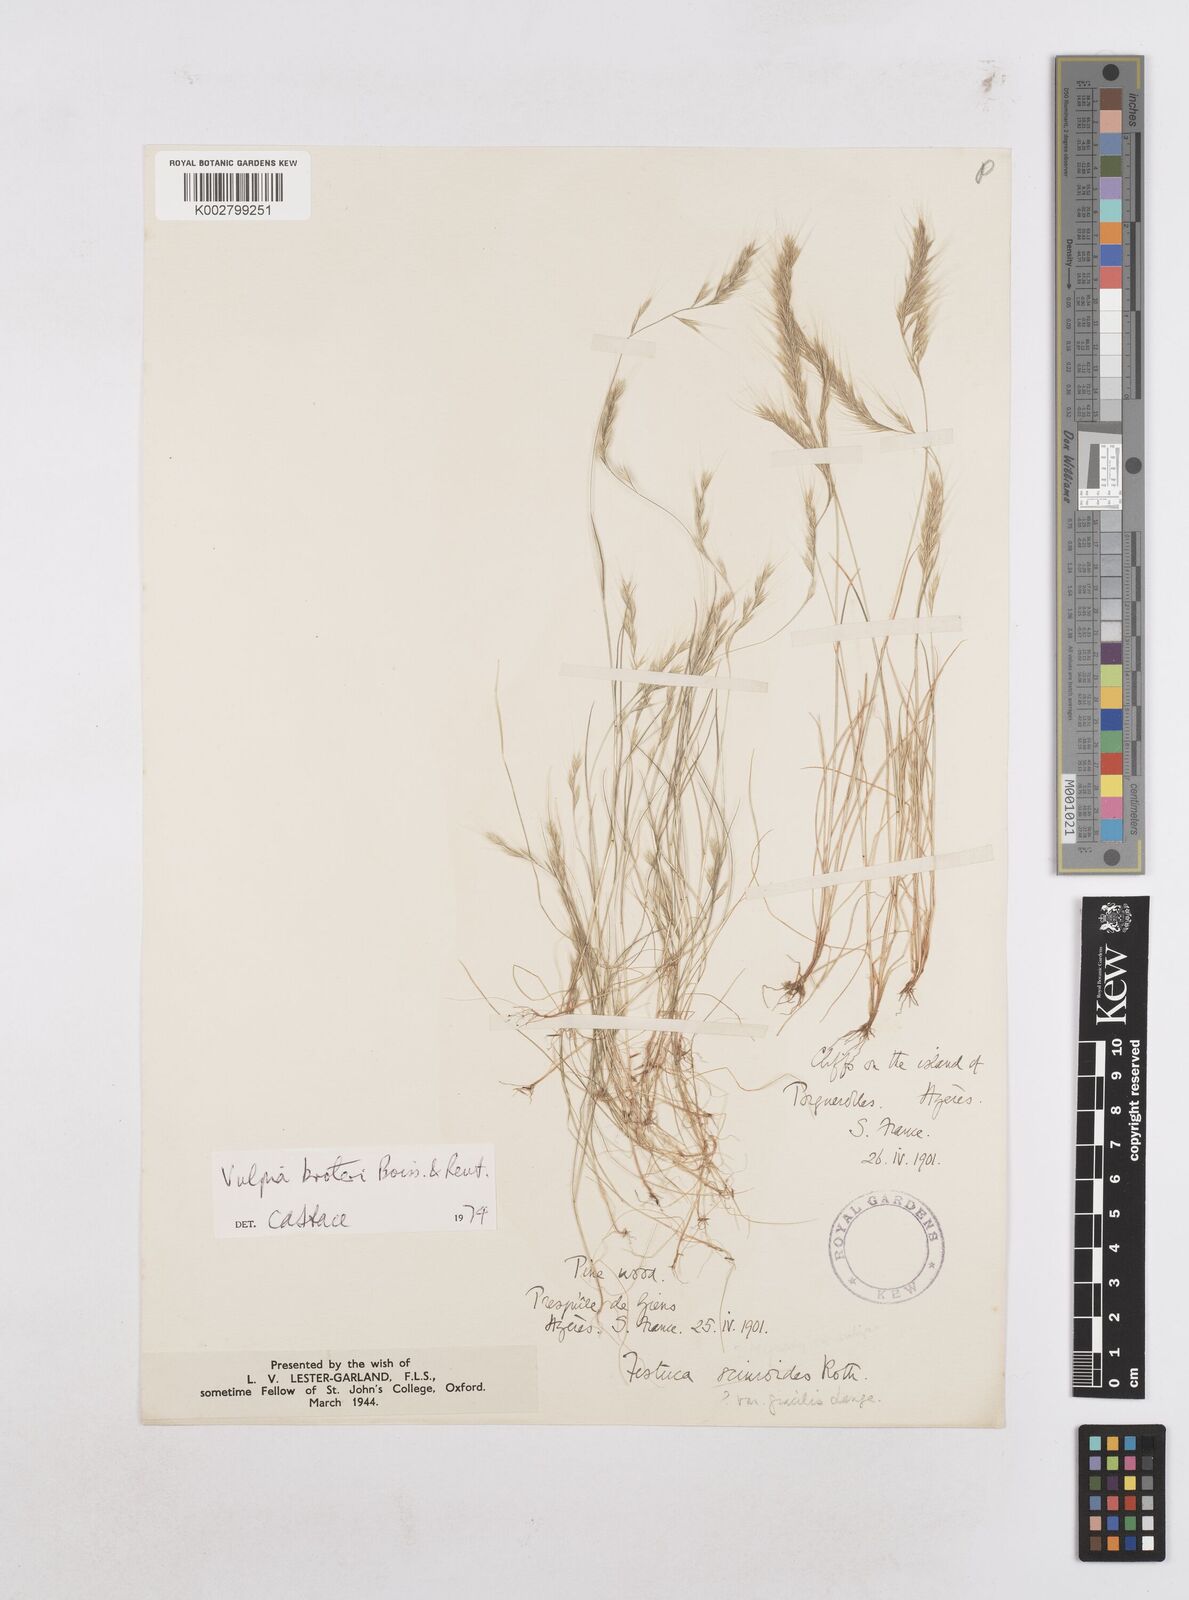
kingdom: Plantae
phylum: Tracheophyta
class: Liliopsida
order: Poales
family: Poaceae
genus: Festuca
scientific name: Festuca muralis
